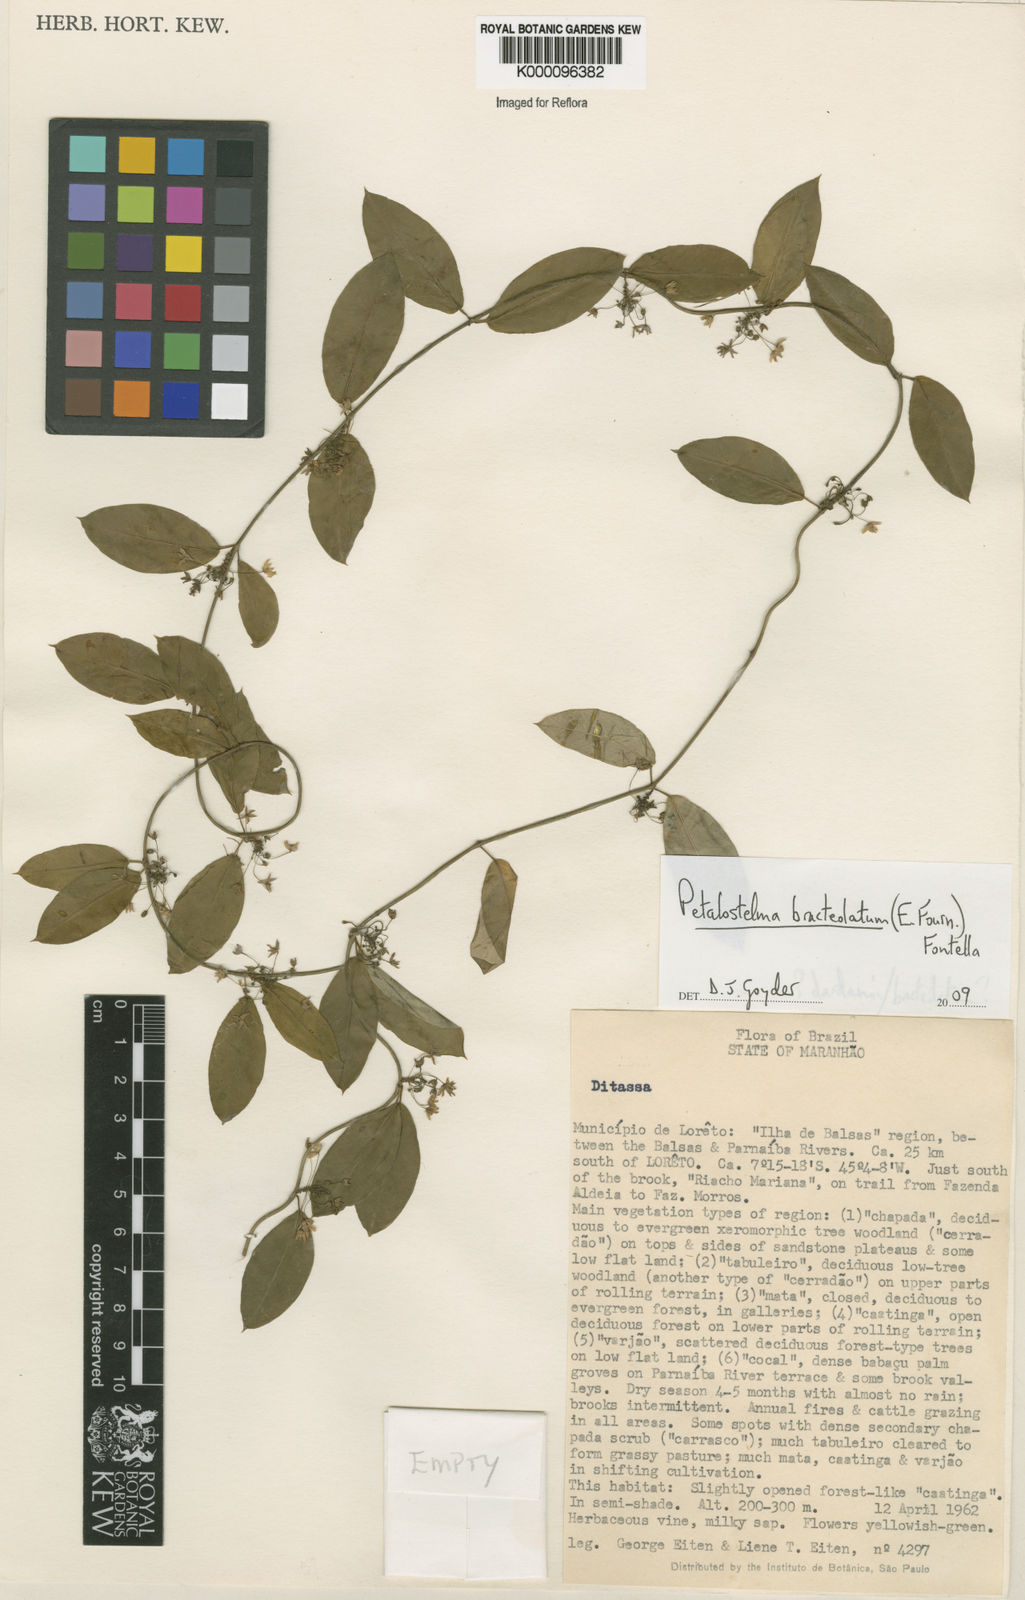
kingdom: Plantae
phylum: Tracheophyta
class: Magnoliopsida
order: Gentianales
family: Apocynaceae
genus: Petalostelma
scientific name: Petalostelma bracteolatum
